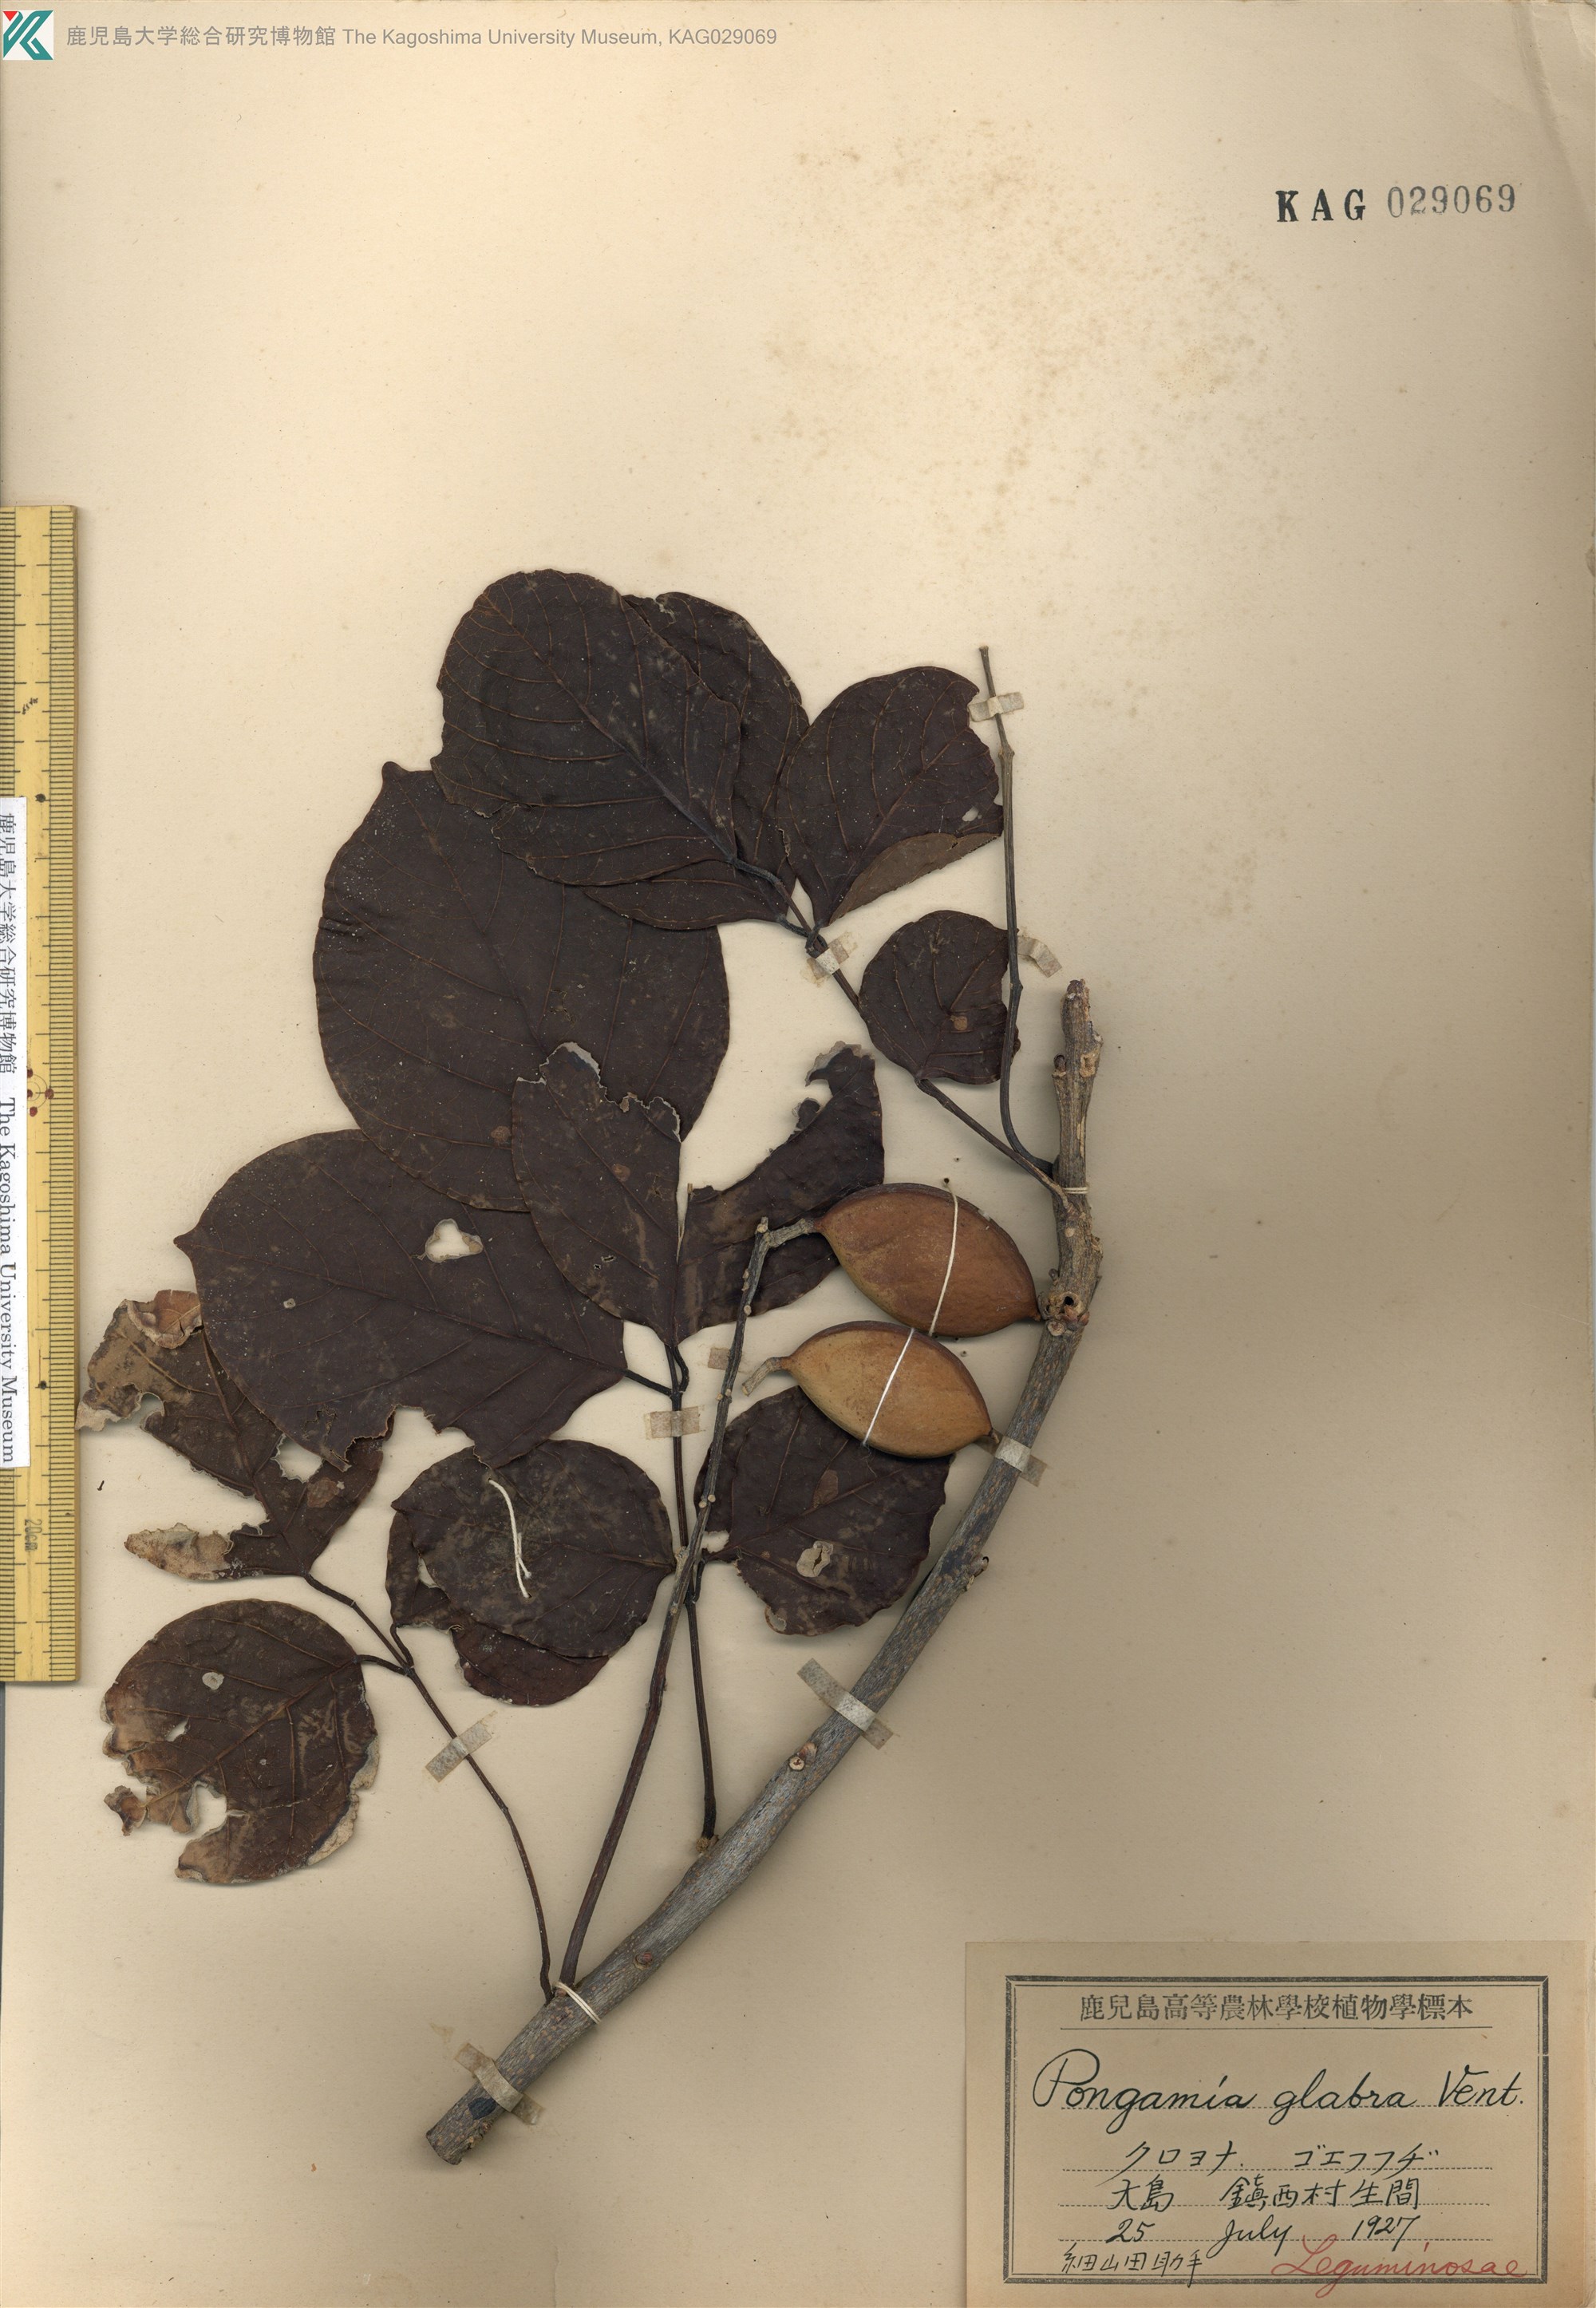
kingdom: Plantae
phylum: Tracheophyta
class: Magnoliopsida
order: Fabales
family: Fabaceae
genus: Pongamia
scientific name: Pongamia pinnata
